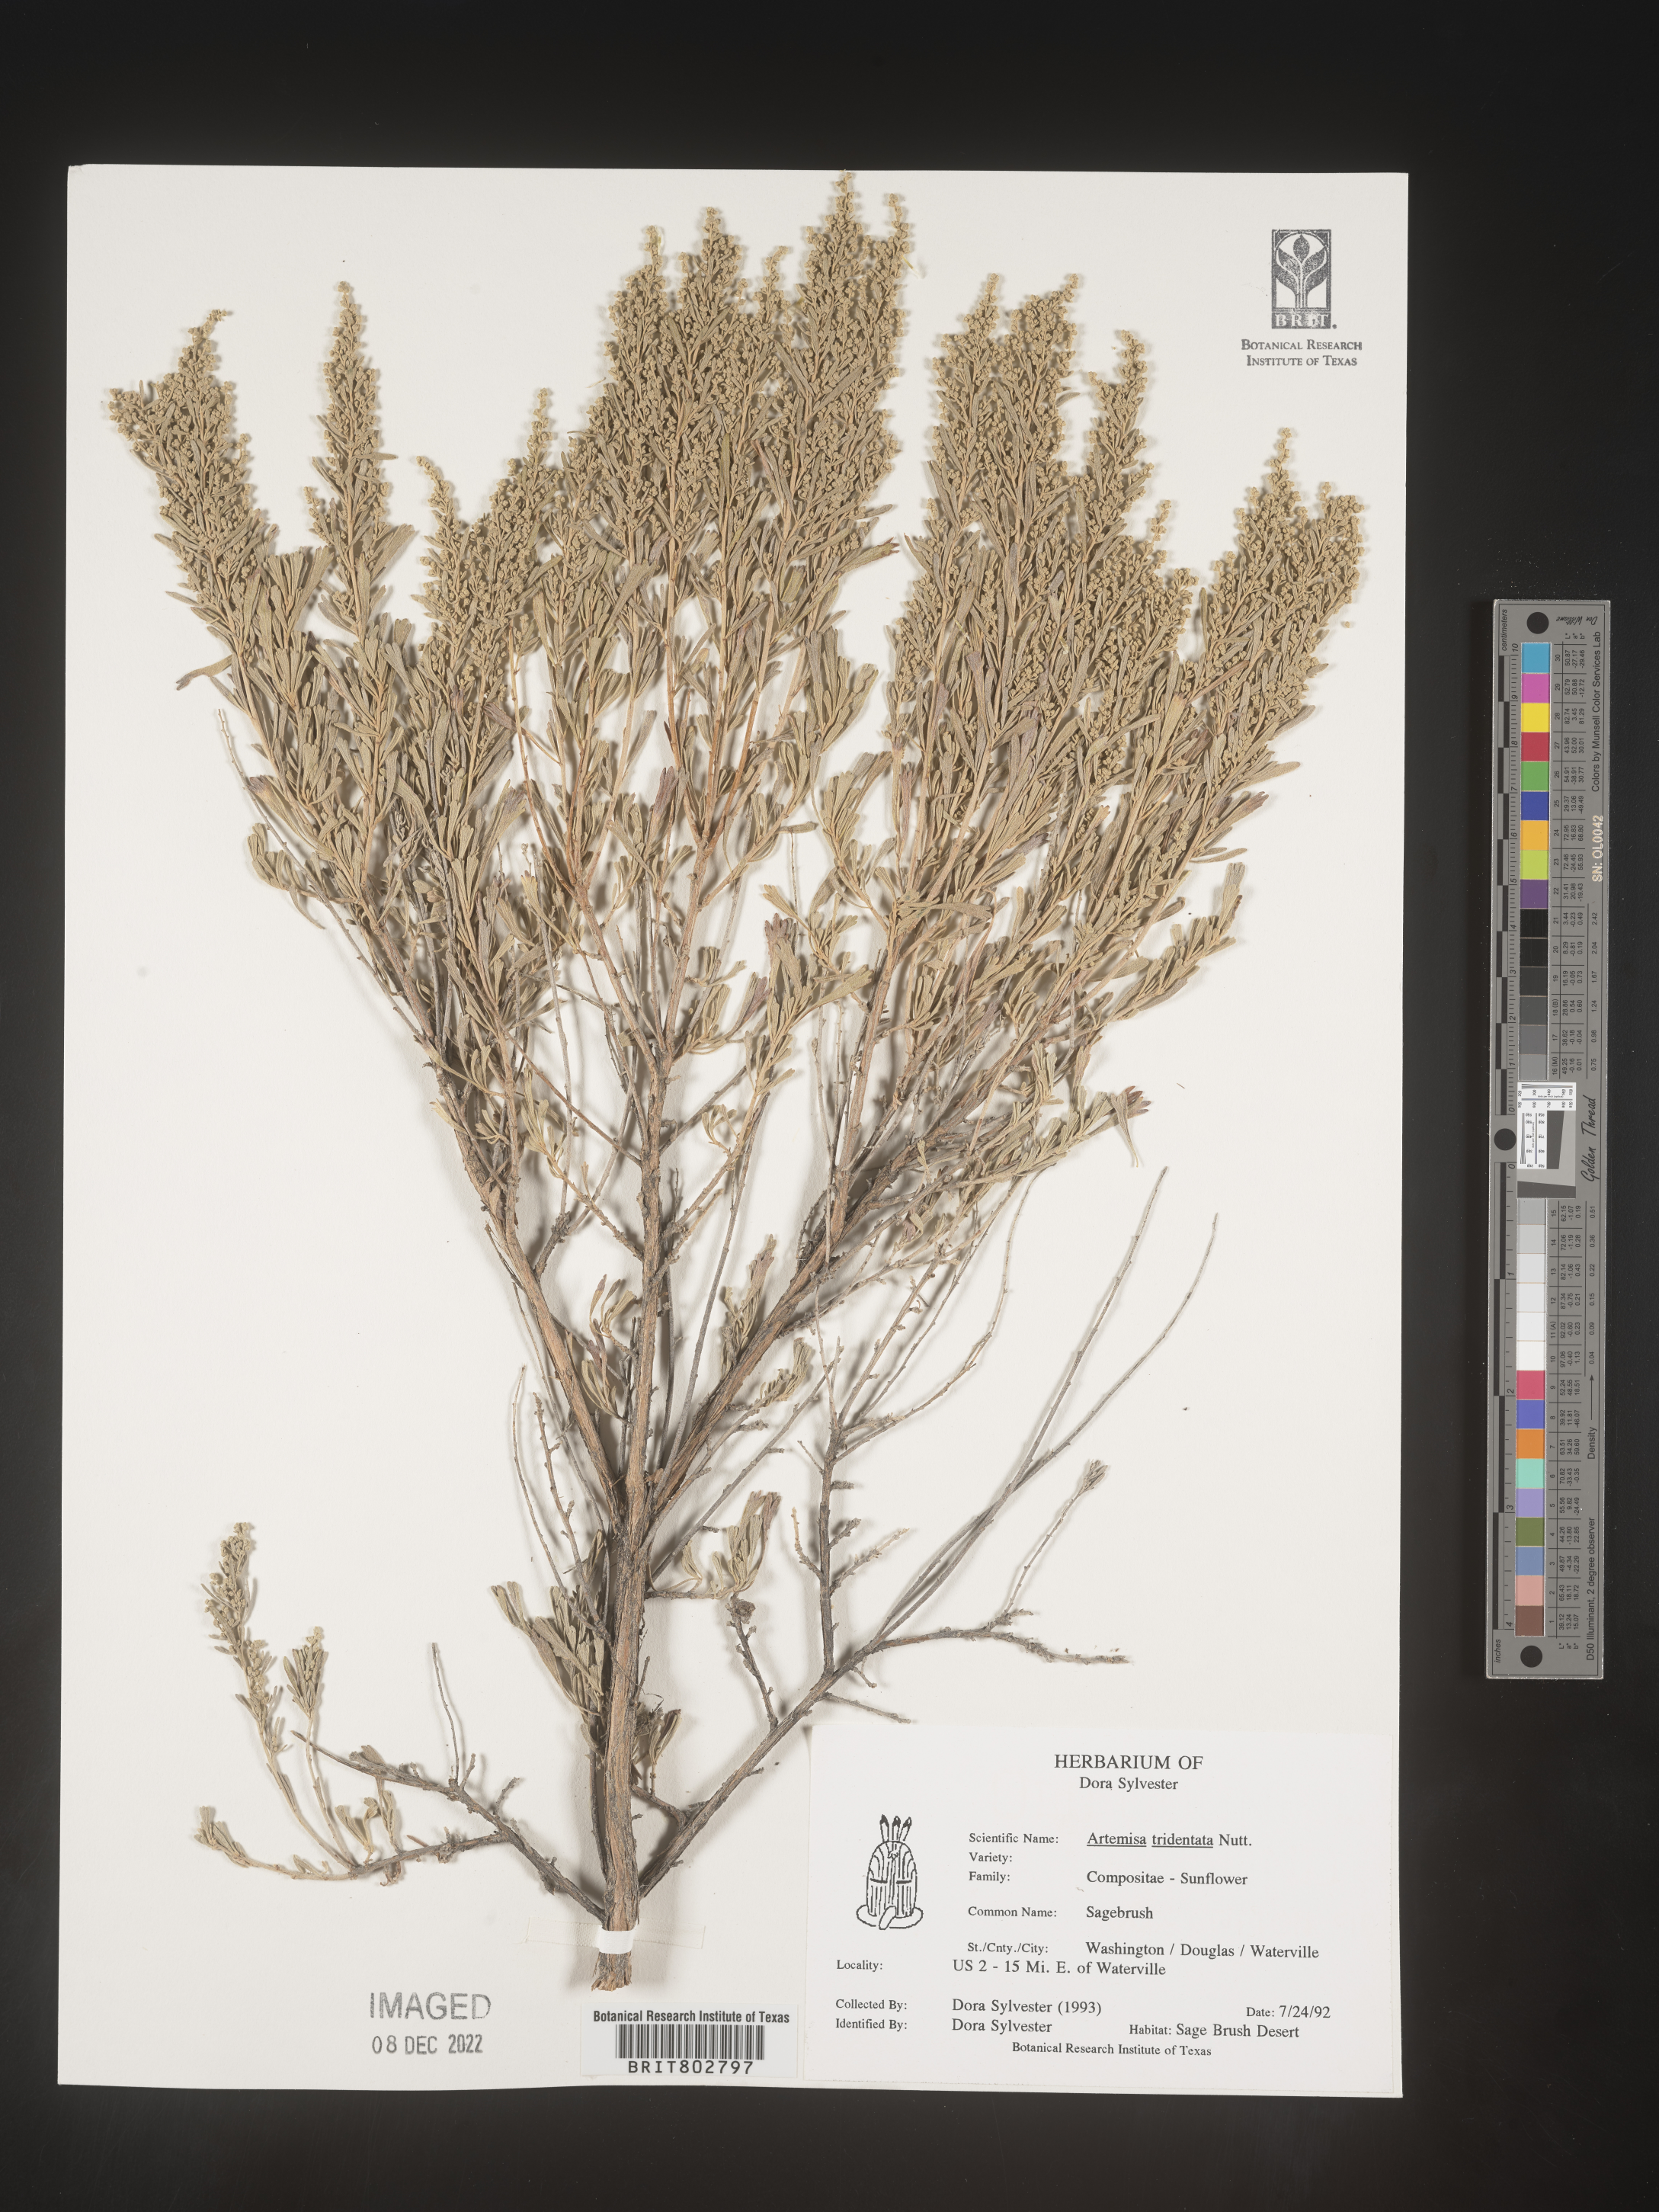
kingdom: Plantae
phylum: Tracheophyta
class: Magnoliopsida
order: Asterales
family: Asteraceae
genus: Artemisia
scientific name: Artemisia tridentata
